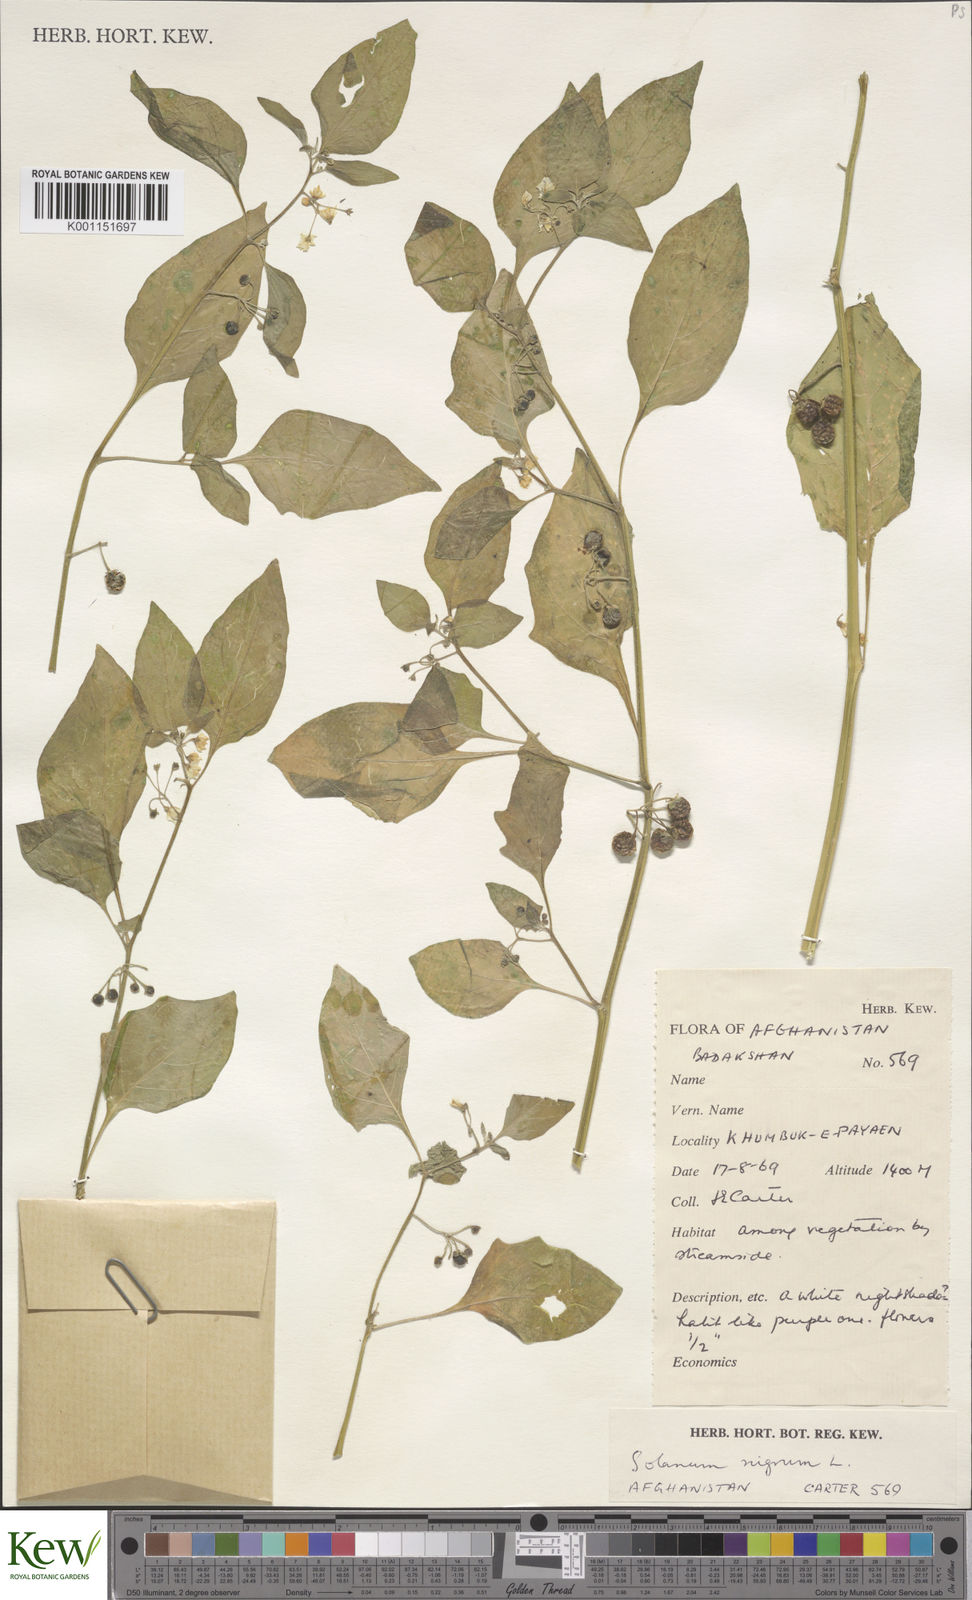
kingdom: Plantae
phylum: Tracheophyta
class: Magnoliopsida
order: Solanales
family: Solanaceae
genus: Solanum
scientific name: Solanum nigrum
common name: Black nightshade
